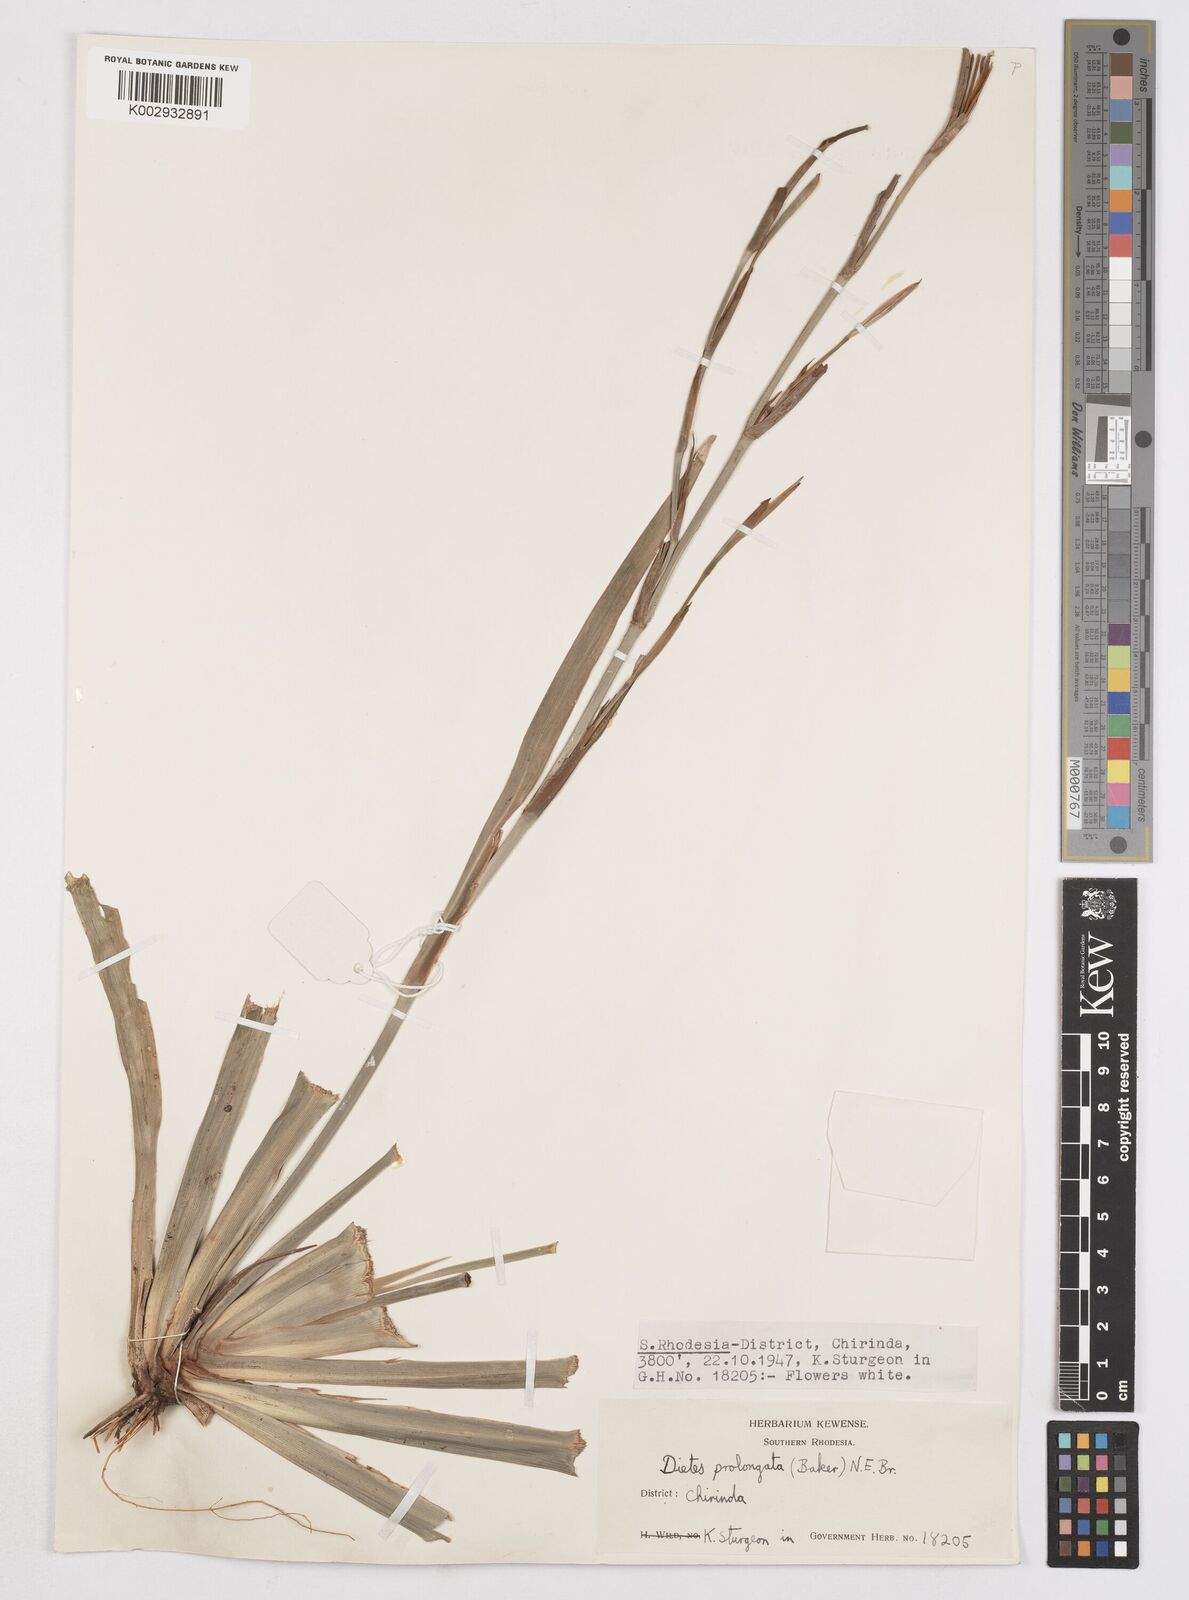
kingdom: Plantae
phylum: Tracheophyta
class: Liliopsida
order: Asparagales
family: Iridaceae
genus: Dietes
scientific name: Dietes
